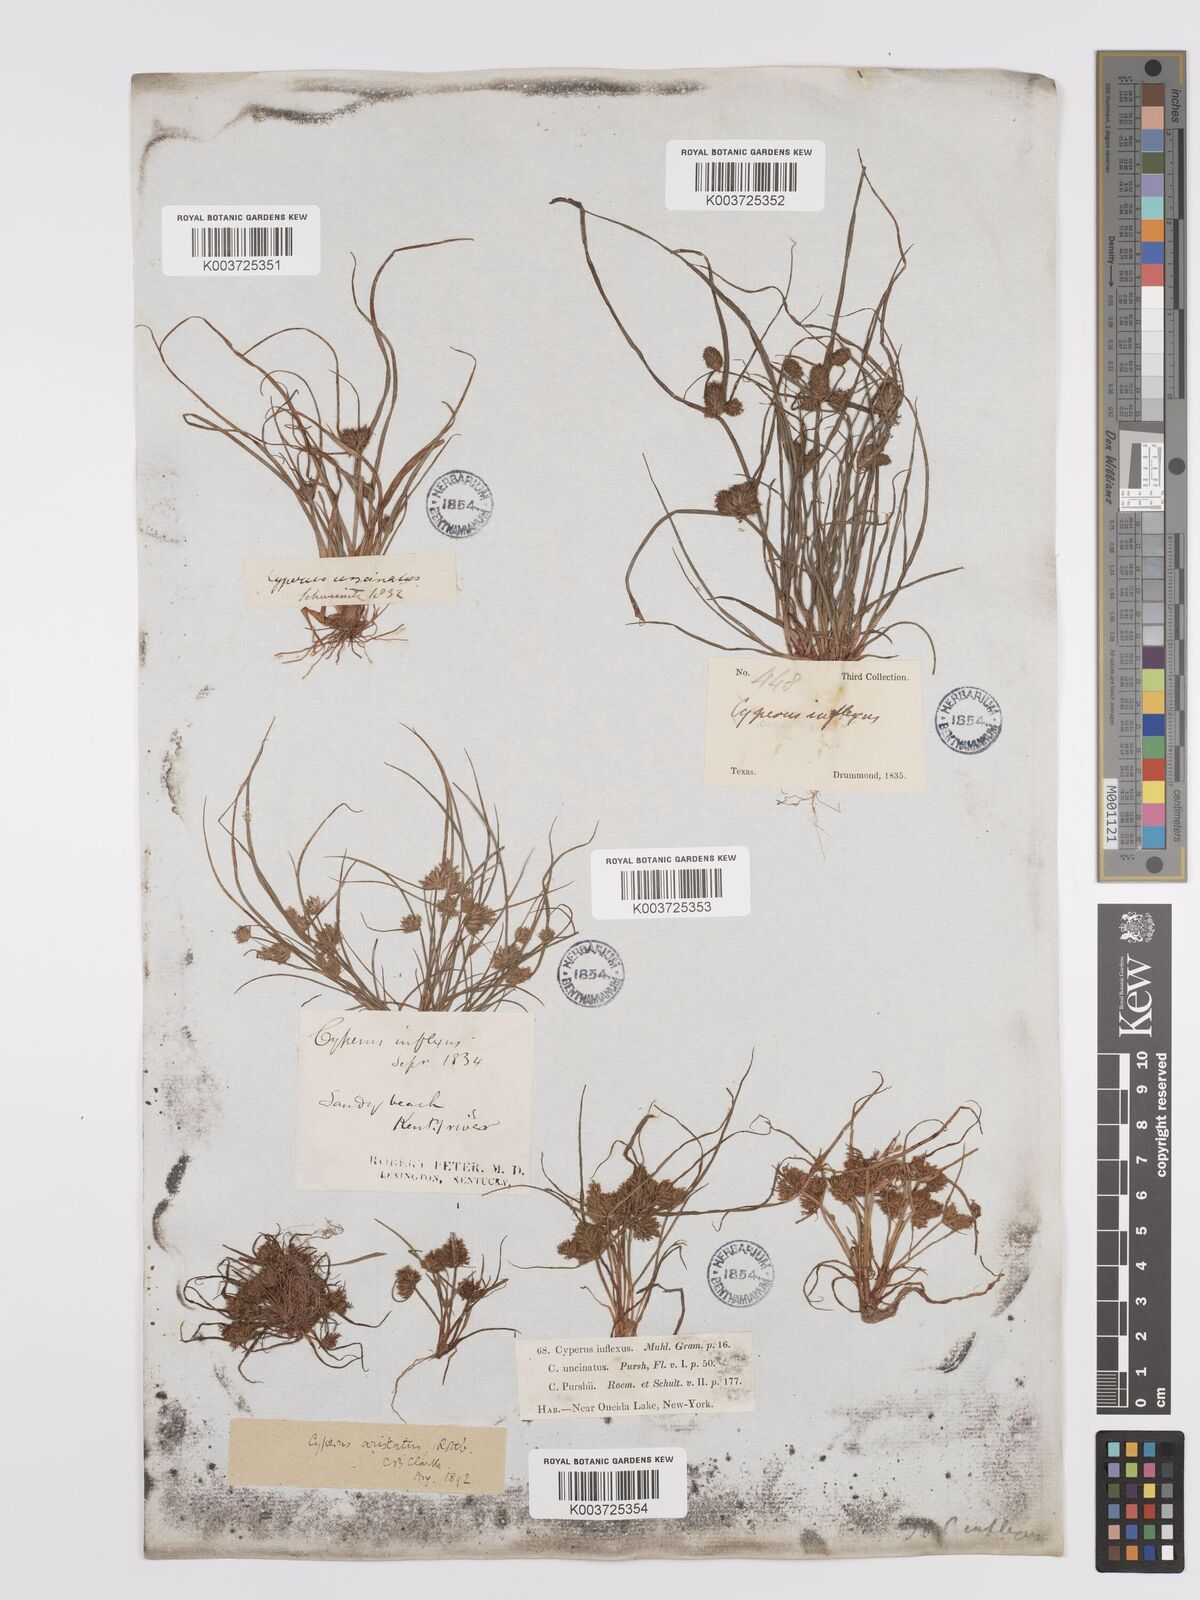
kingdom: Plantae
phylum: Tracheophyta
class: Liliopsida
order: Poales
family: Cyperaceae
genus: Cyperus
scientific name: Cyperus squarrosus
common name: Awned cyperus
